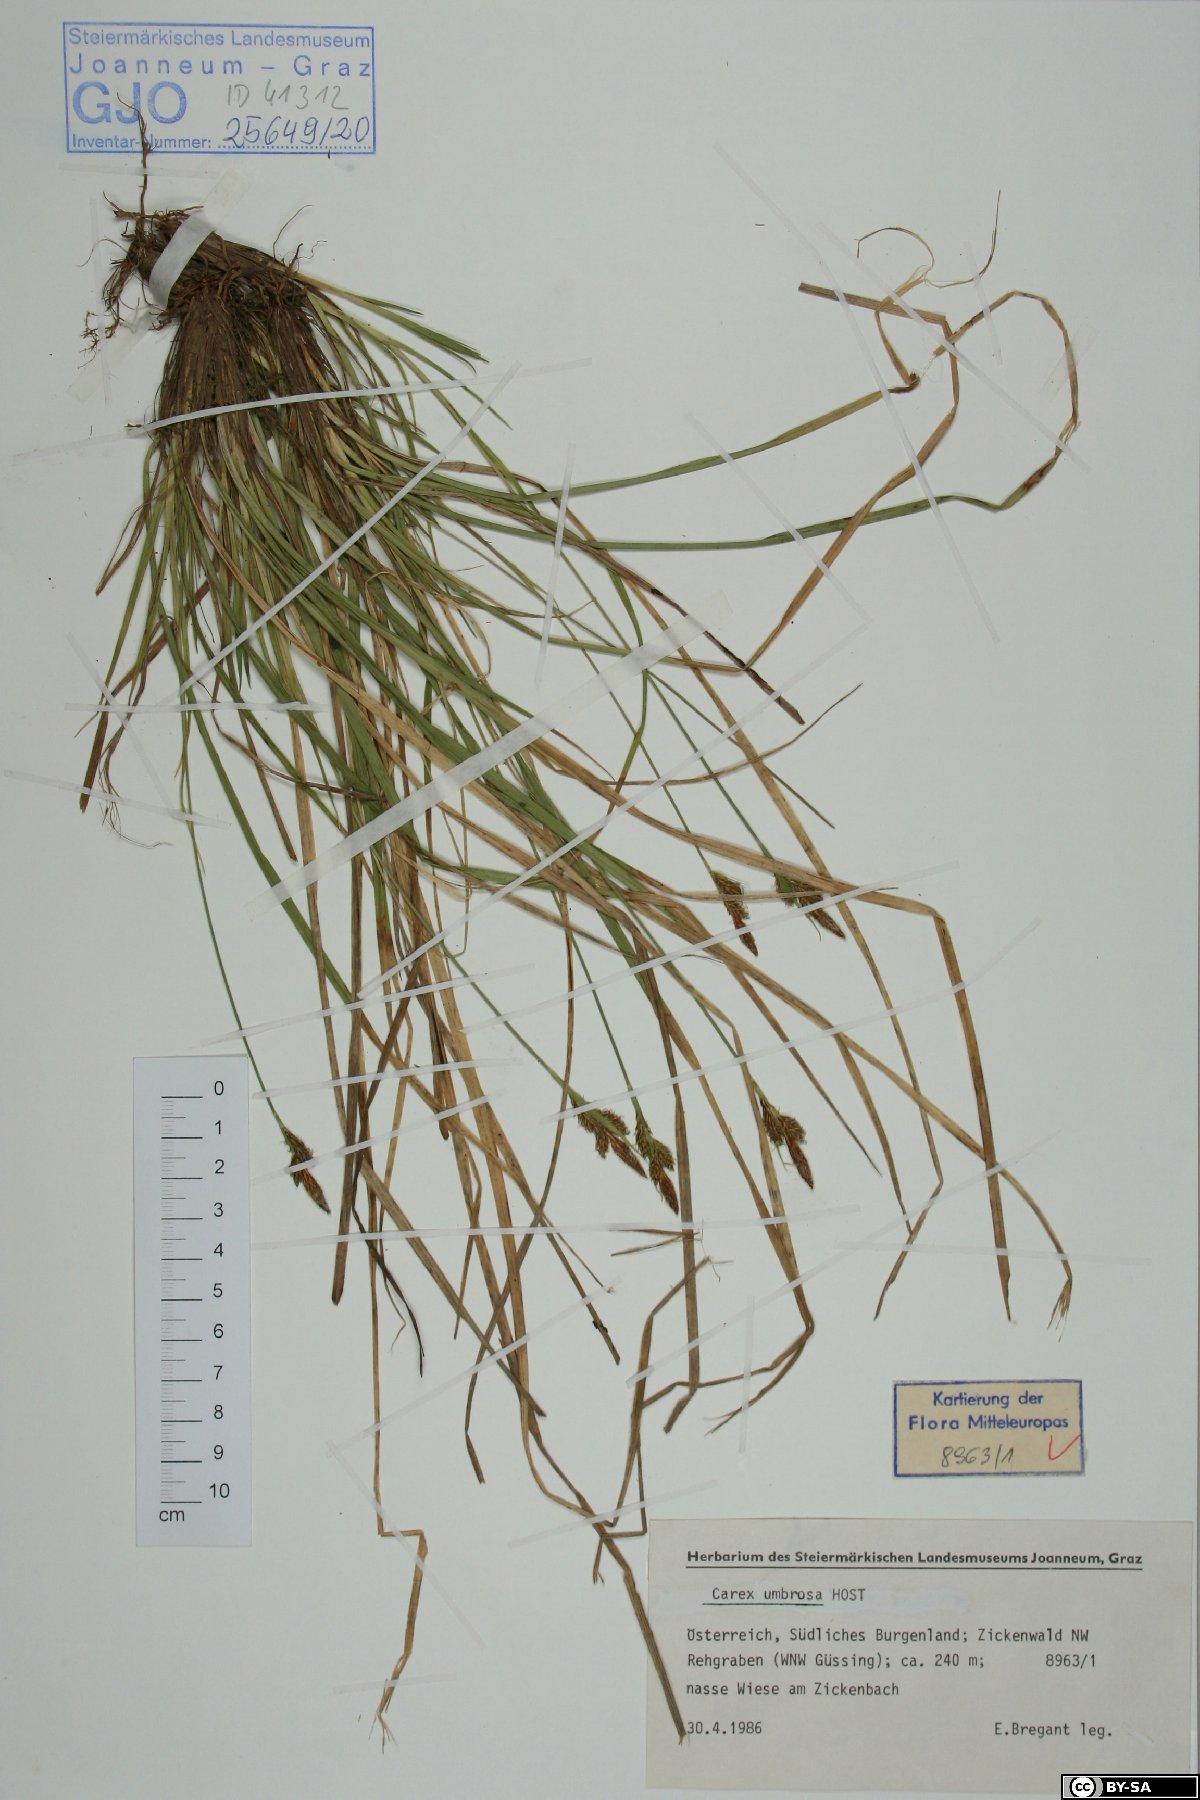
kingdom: Plantae
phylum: Tracheophyta
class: Liliopsida
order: Poales
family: Cyperaceae
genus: Carex
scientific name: Carex umbrosa
